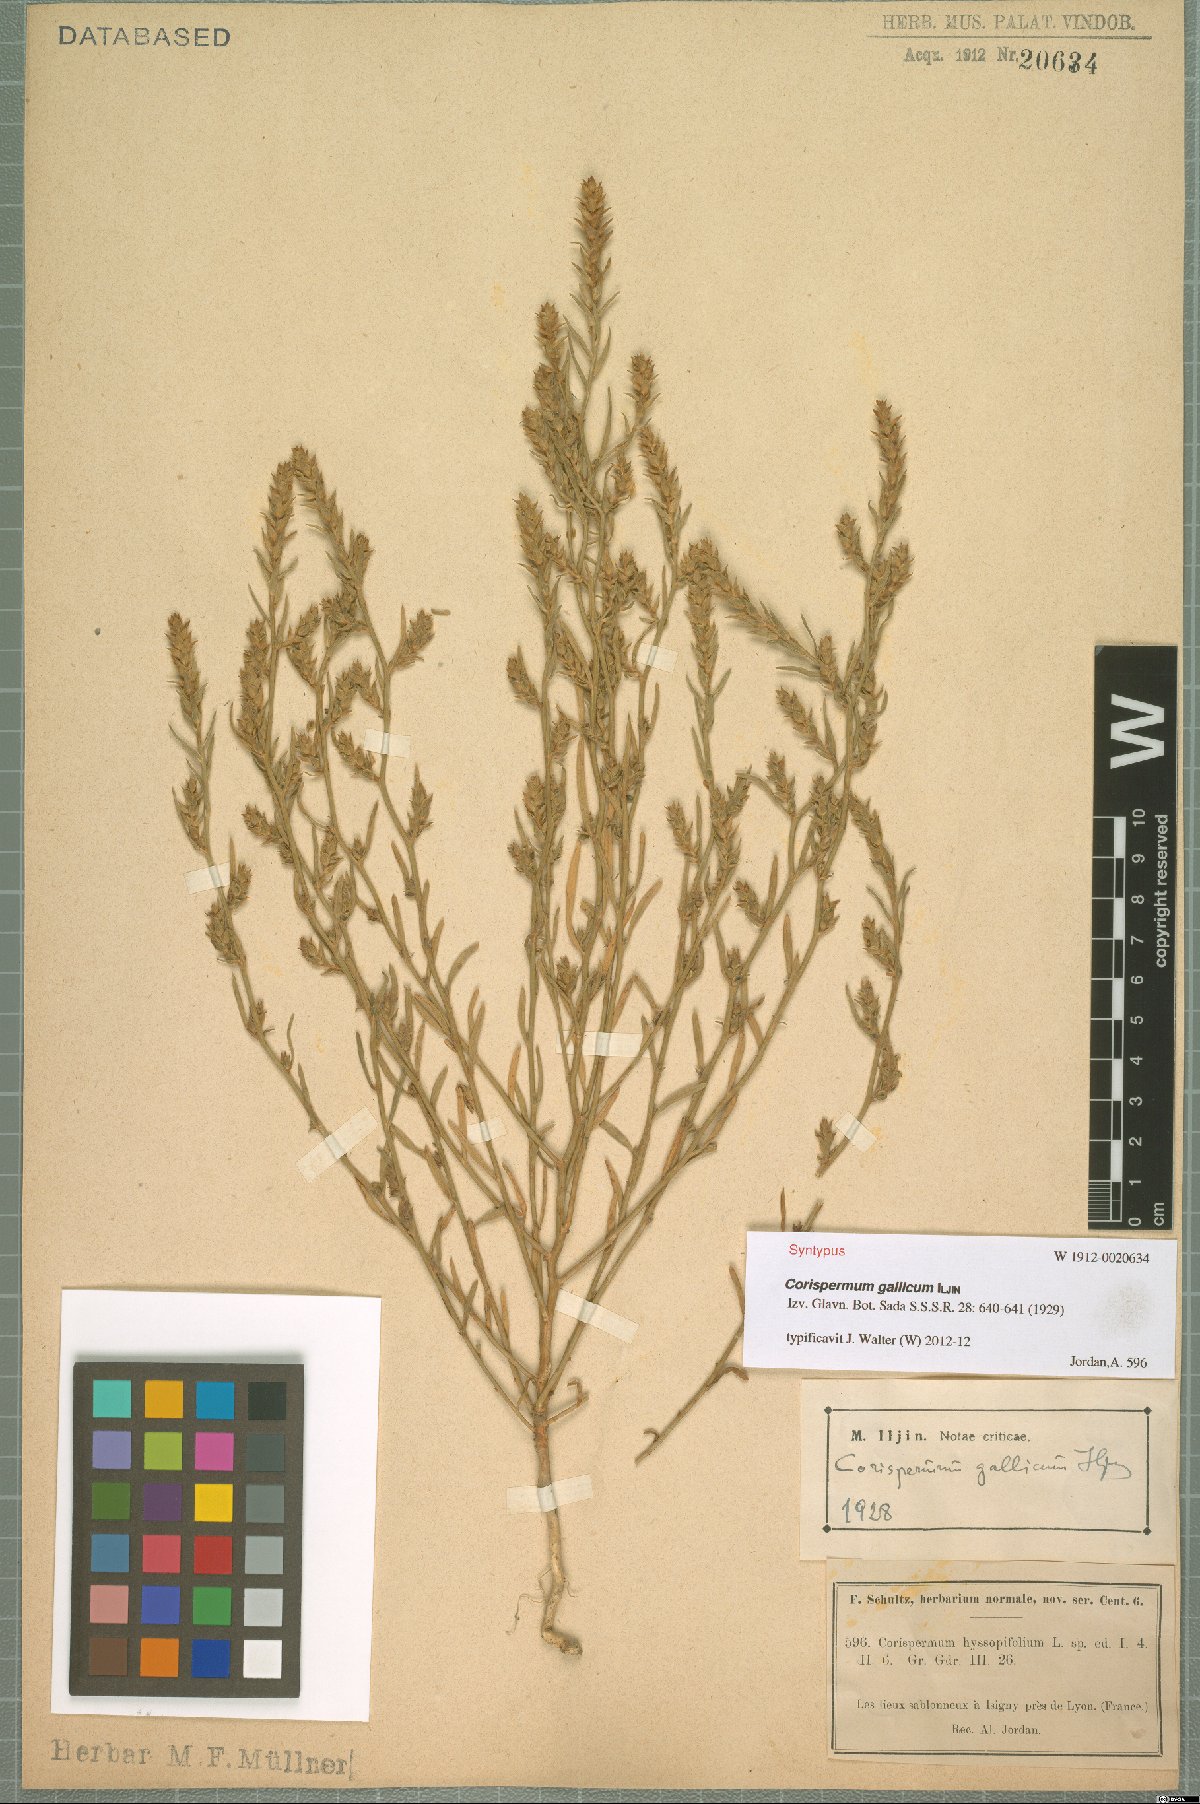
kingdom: Plantae
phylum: Tracheophyta
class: Magnoliopsida
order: Caryophyllales
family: Amaranthaceae
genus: Corispermum
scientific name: Corispermum gallicum
